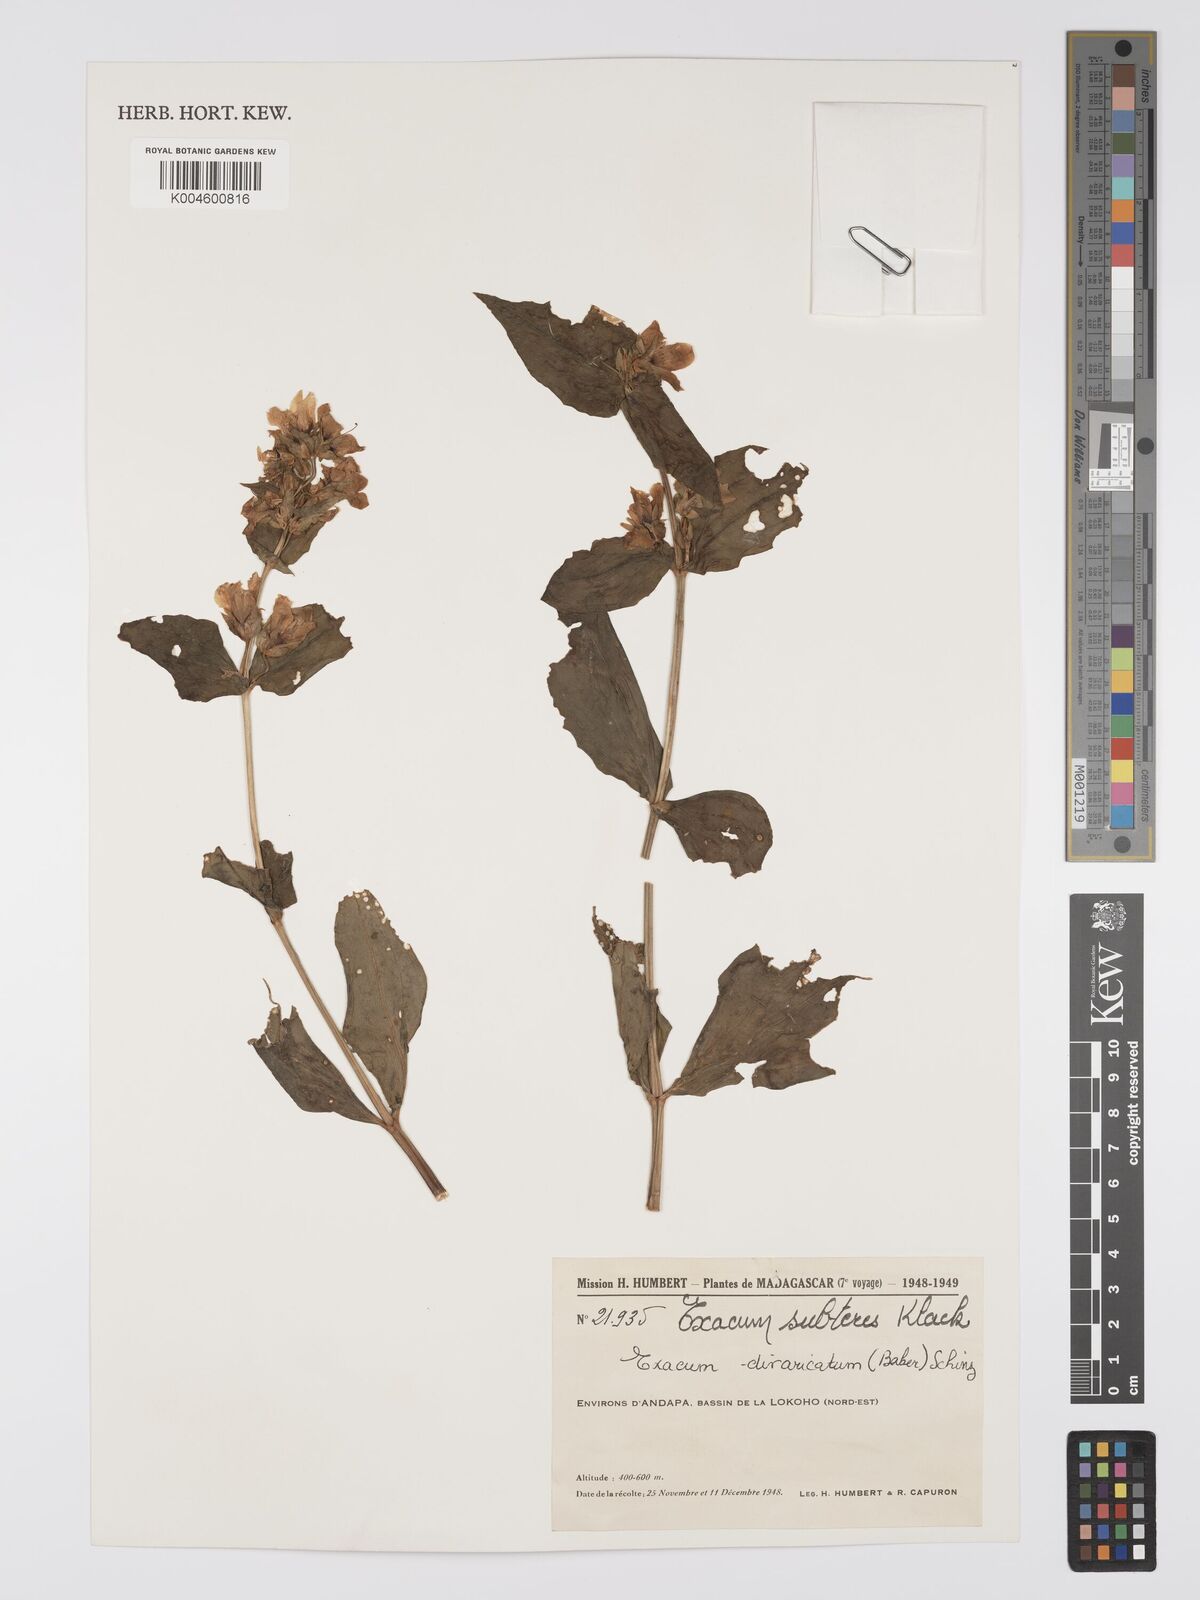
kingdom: Plantae
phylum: Tracheophyta
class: Magnoliopsida
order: Gentianales
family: Gentianaceae
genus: Exacum
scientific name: Exacum subteres
